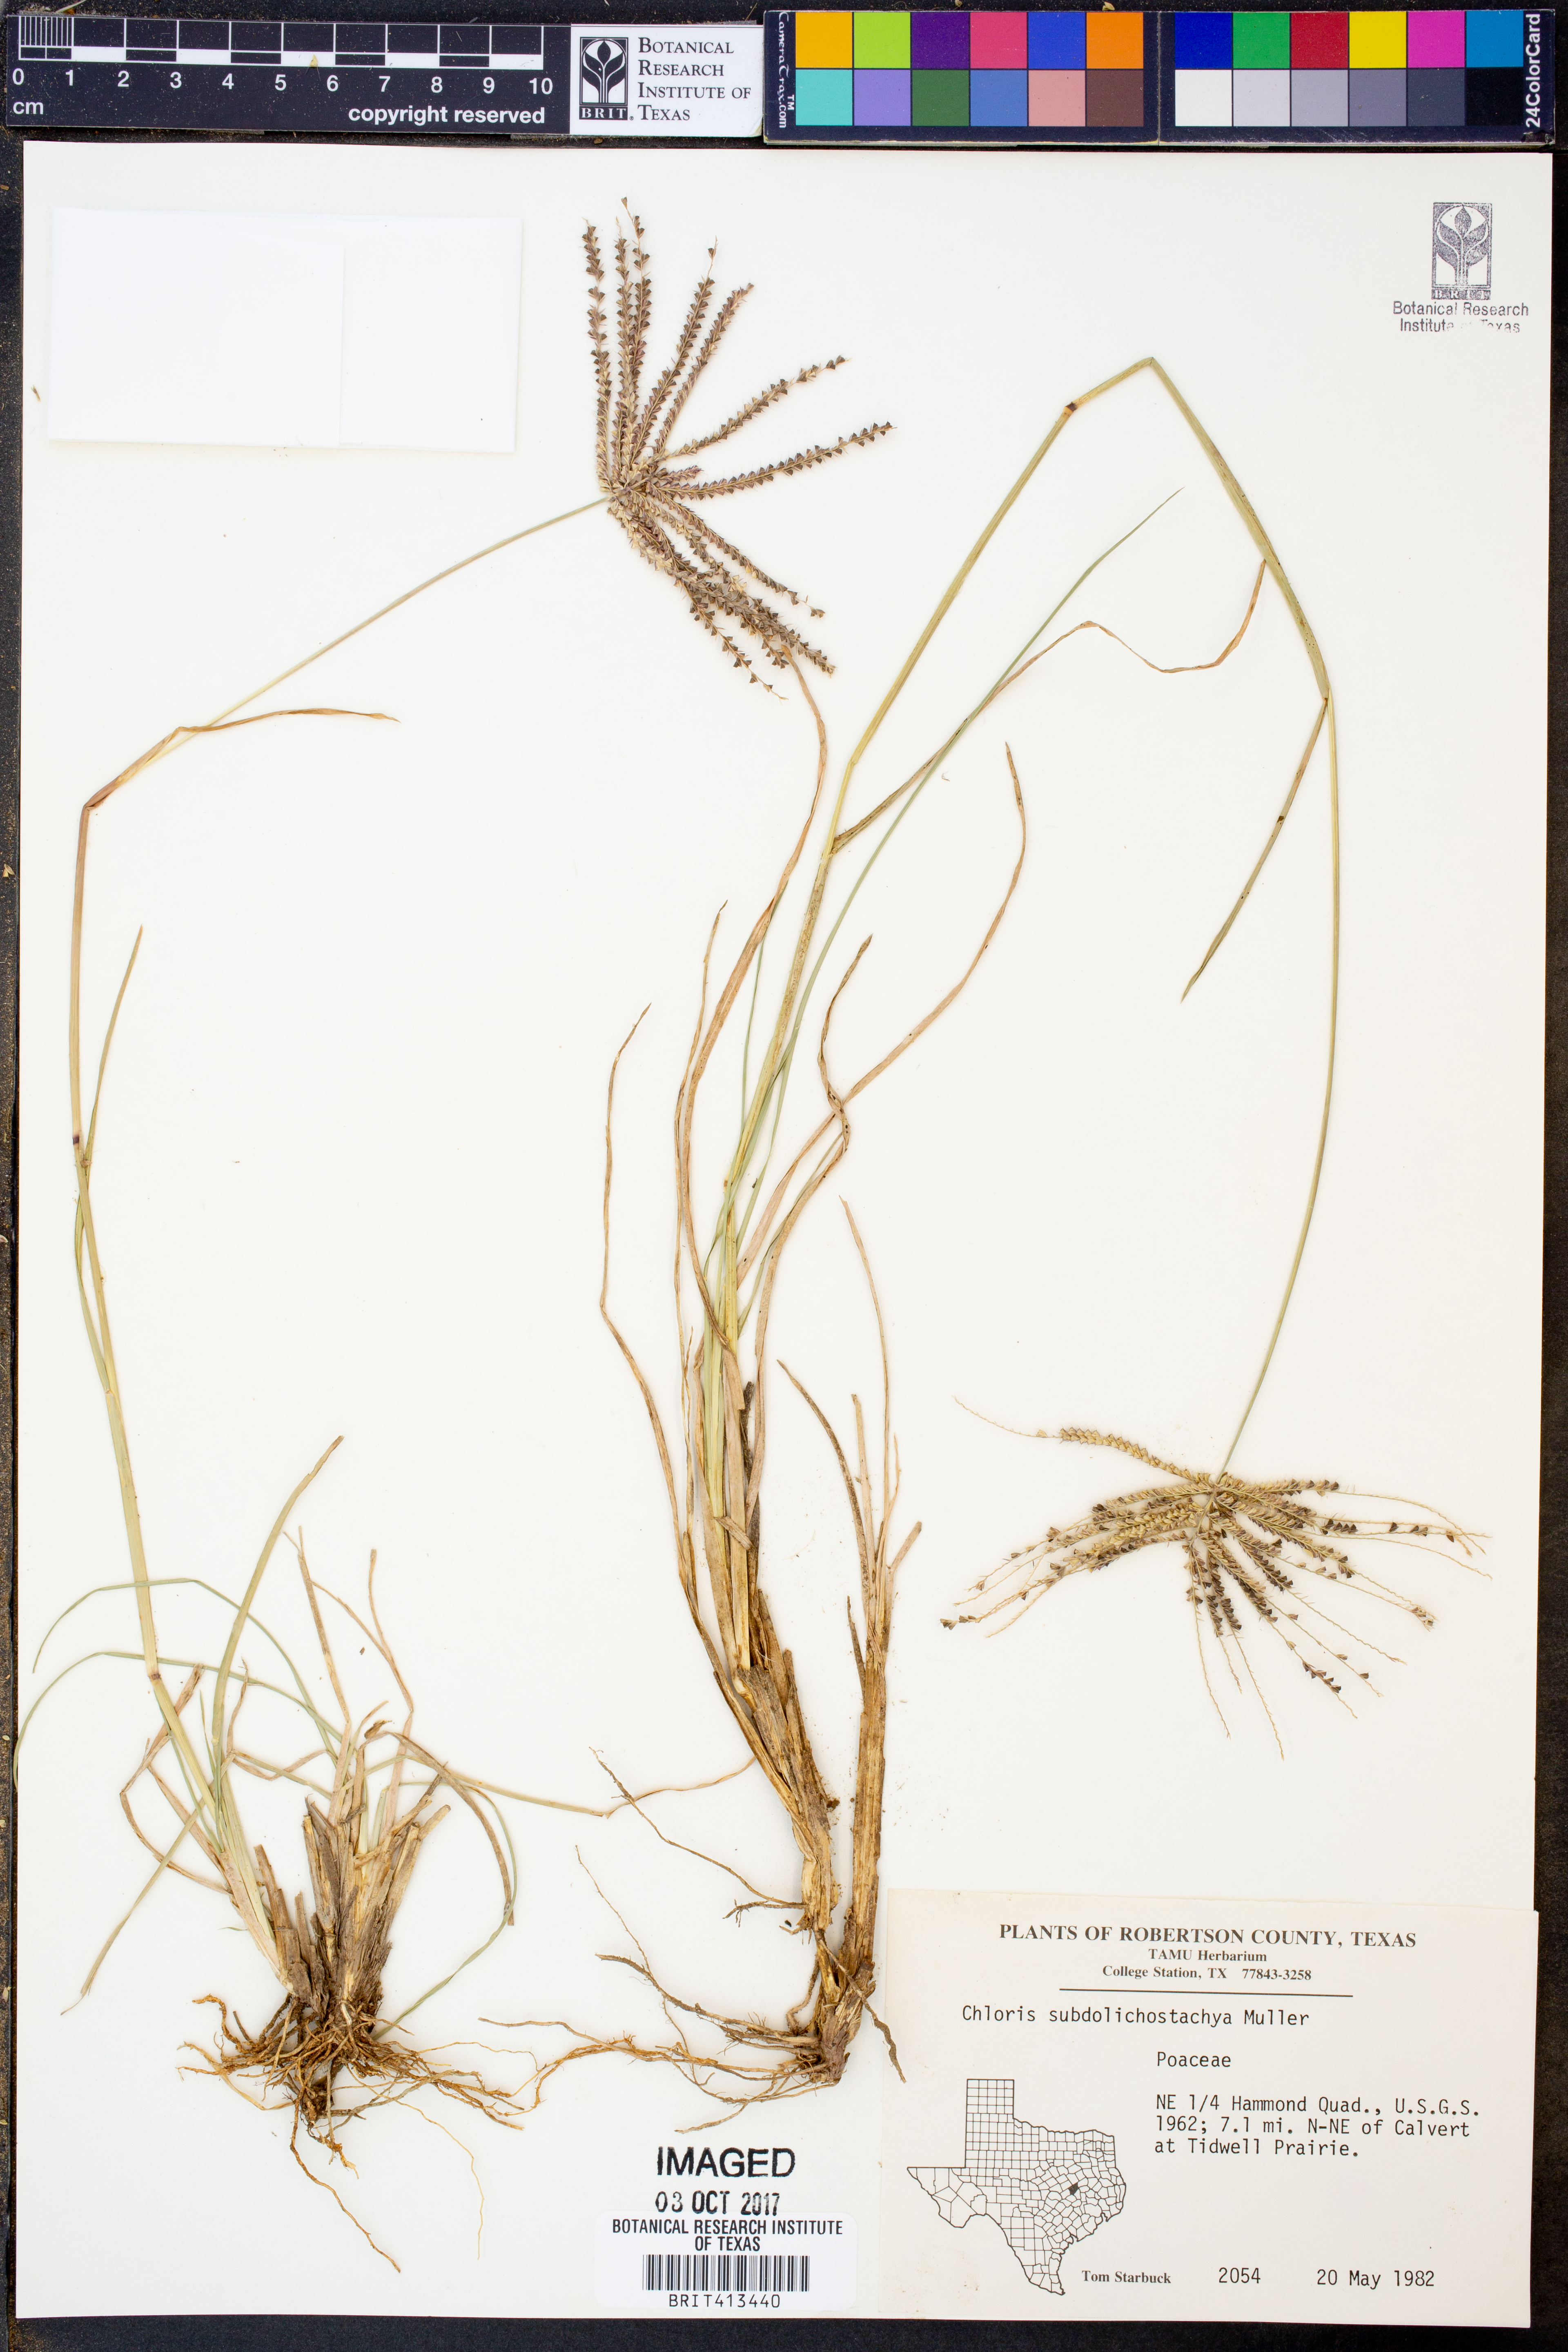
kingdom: Plantae
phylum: Tracheophyta
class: Liliopsida
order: Poales
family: Poaceae
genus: Chloris
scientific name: Chloris subdolichostachya
